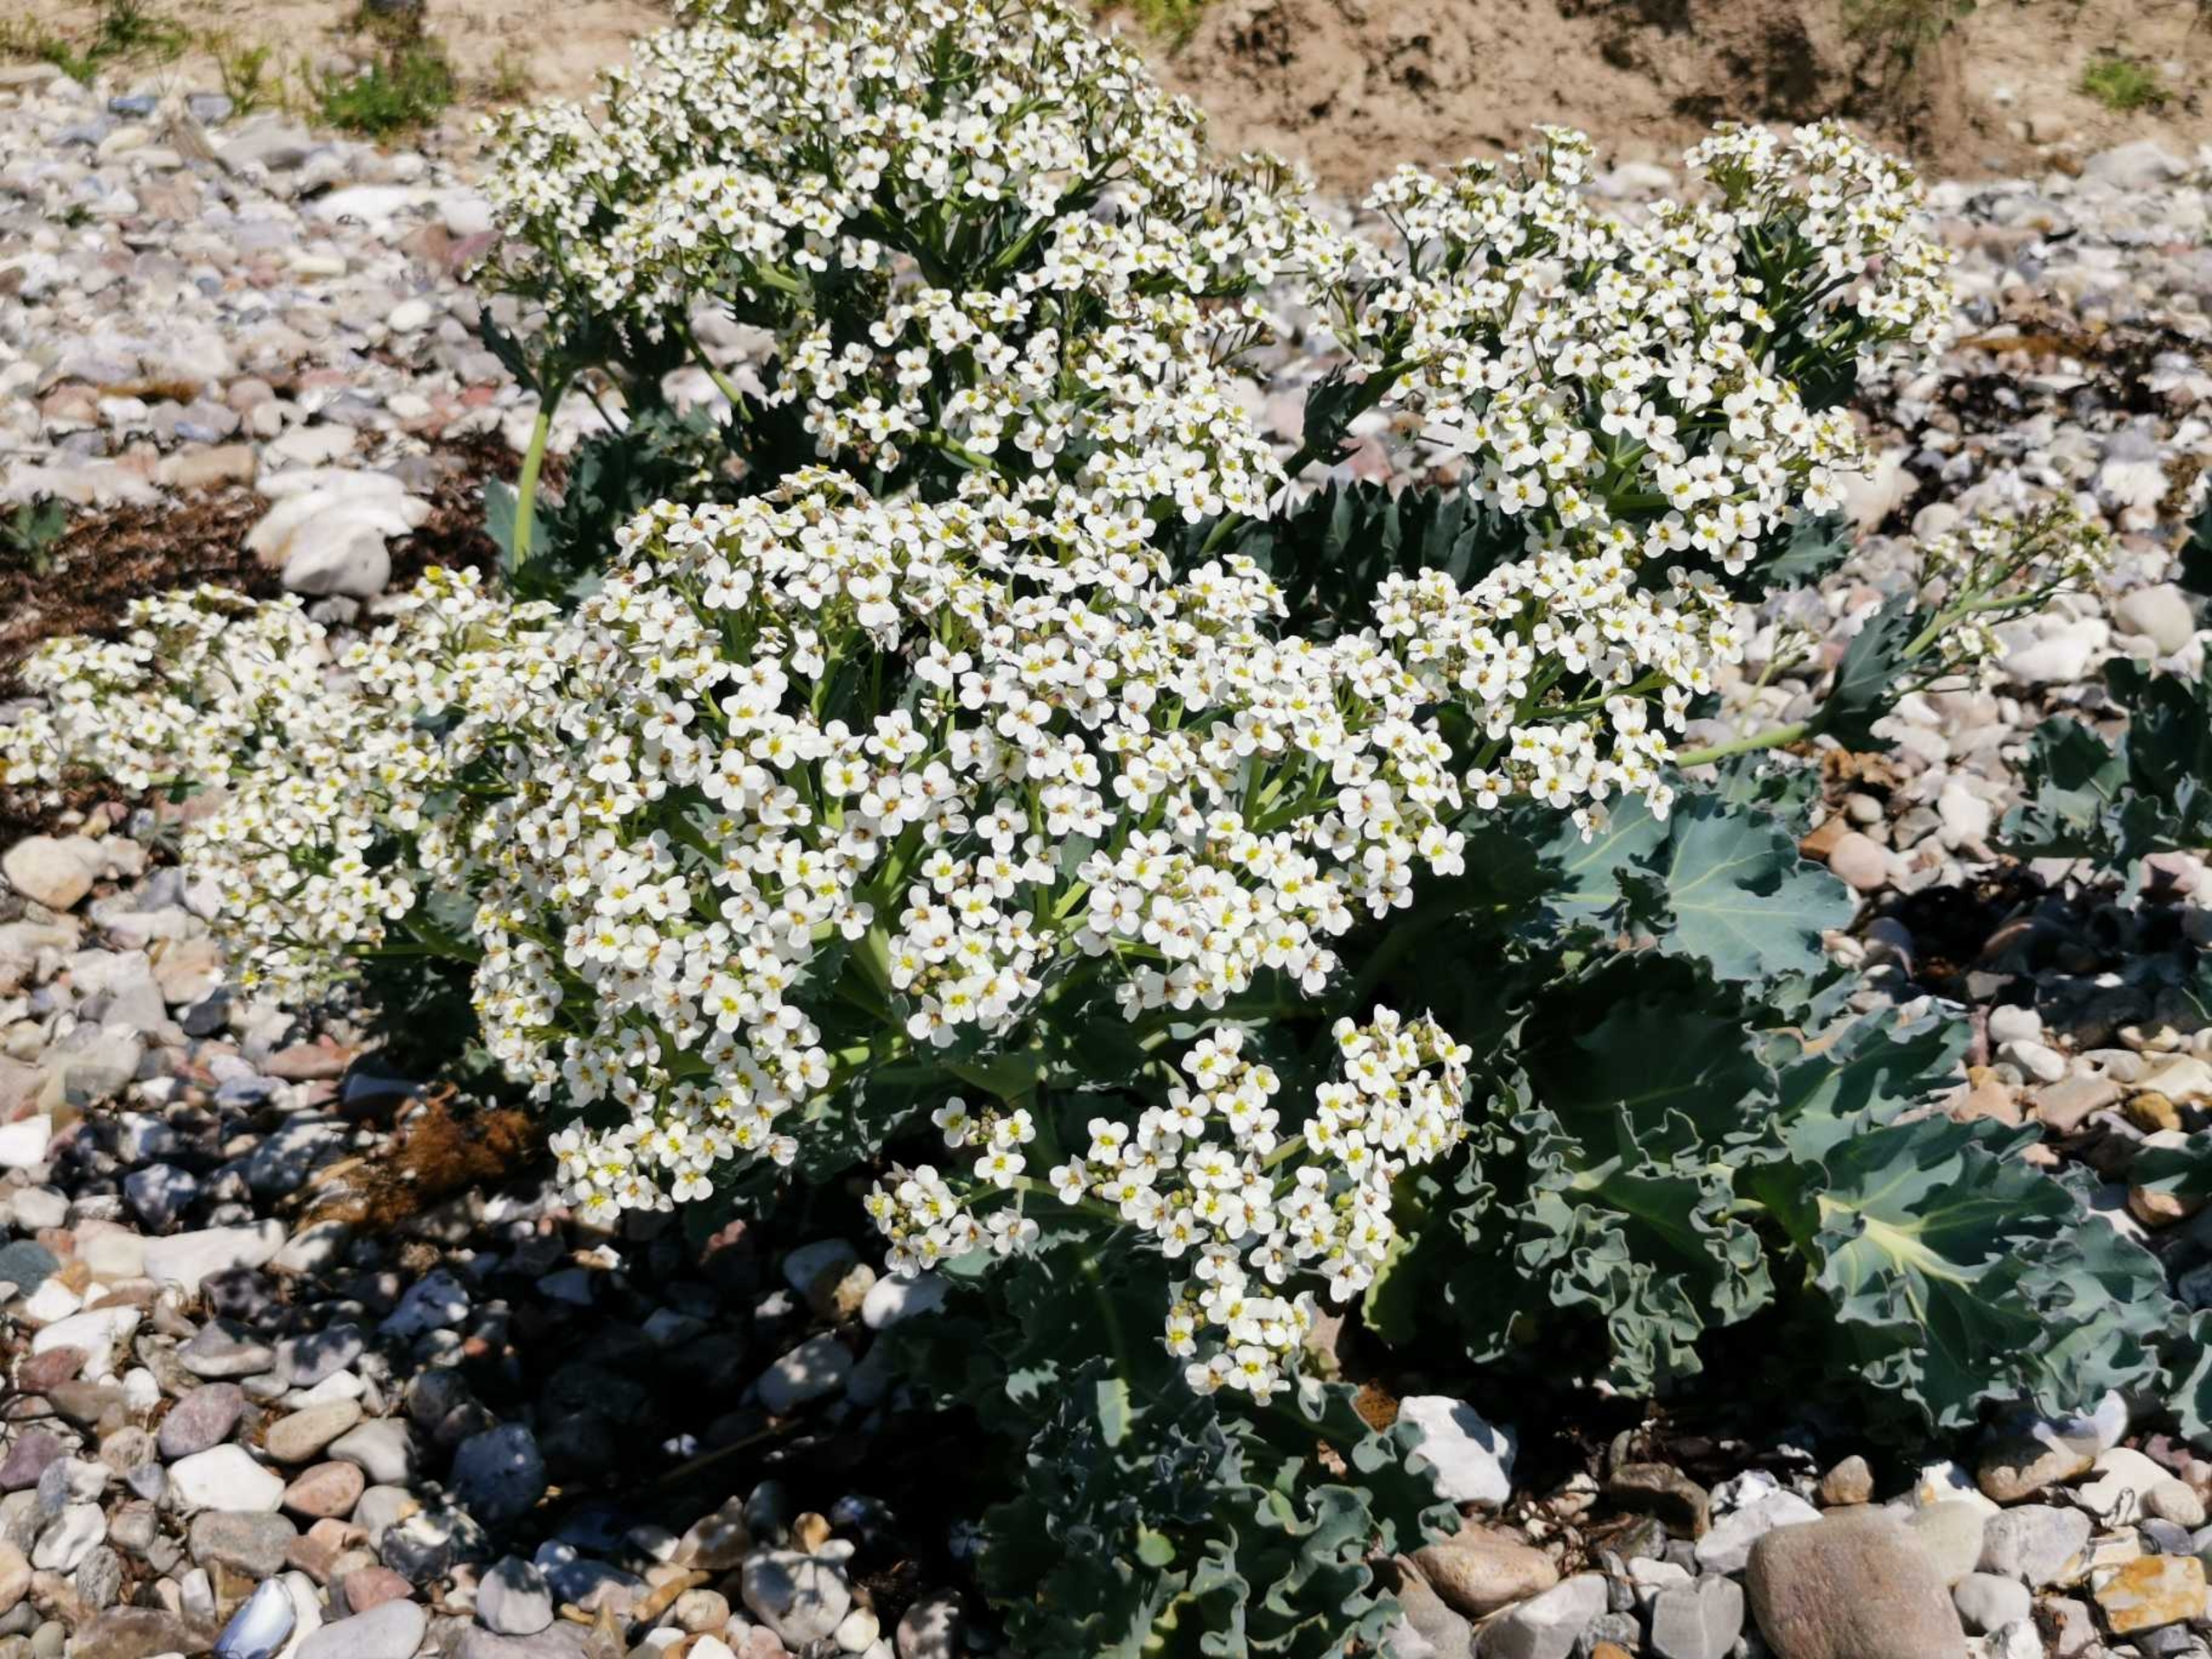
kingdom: Plantae
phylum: Tracheophyta
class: Magnoliopsida
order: Brassicales
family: Brassicaceae
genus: Crambe
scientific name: Crambe maritima
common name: Strandkål
